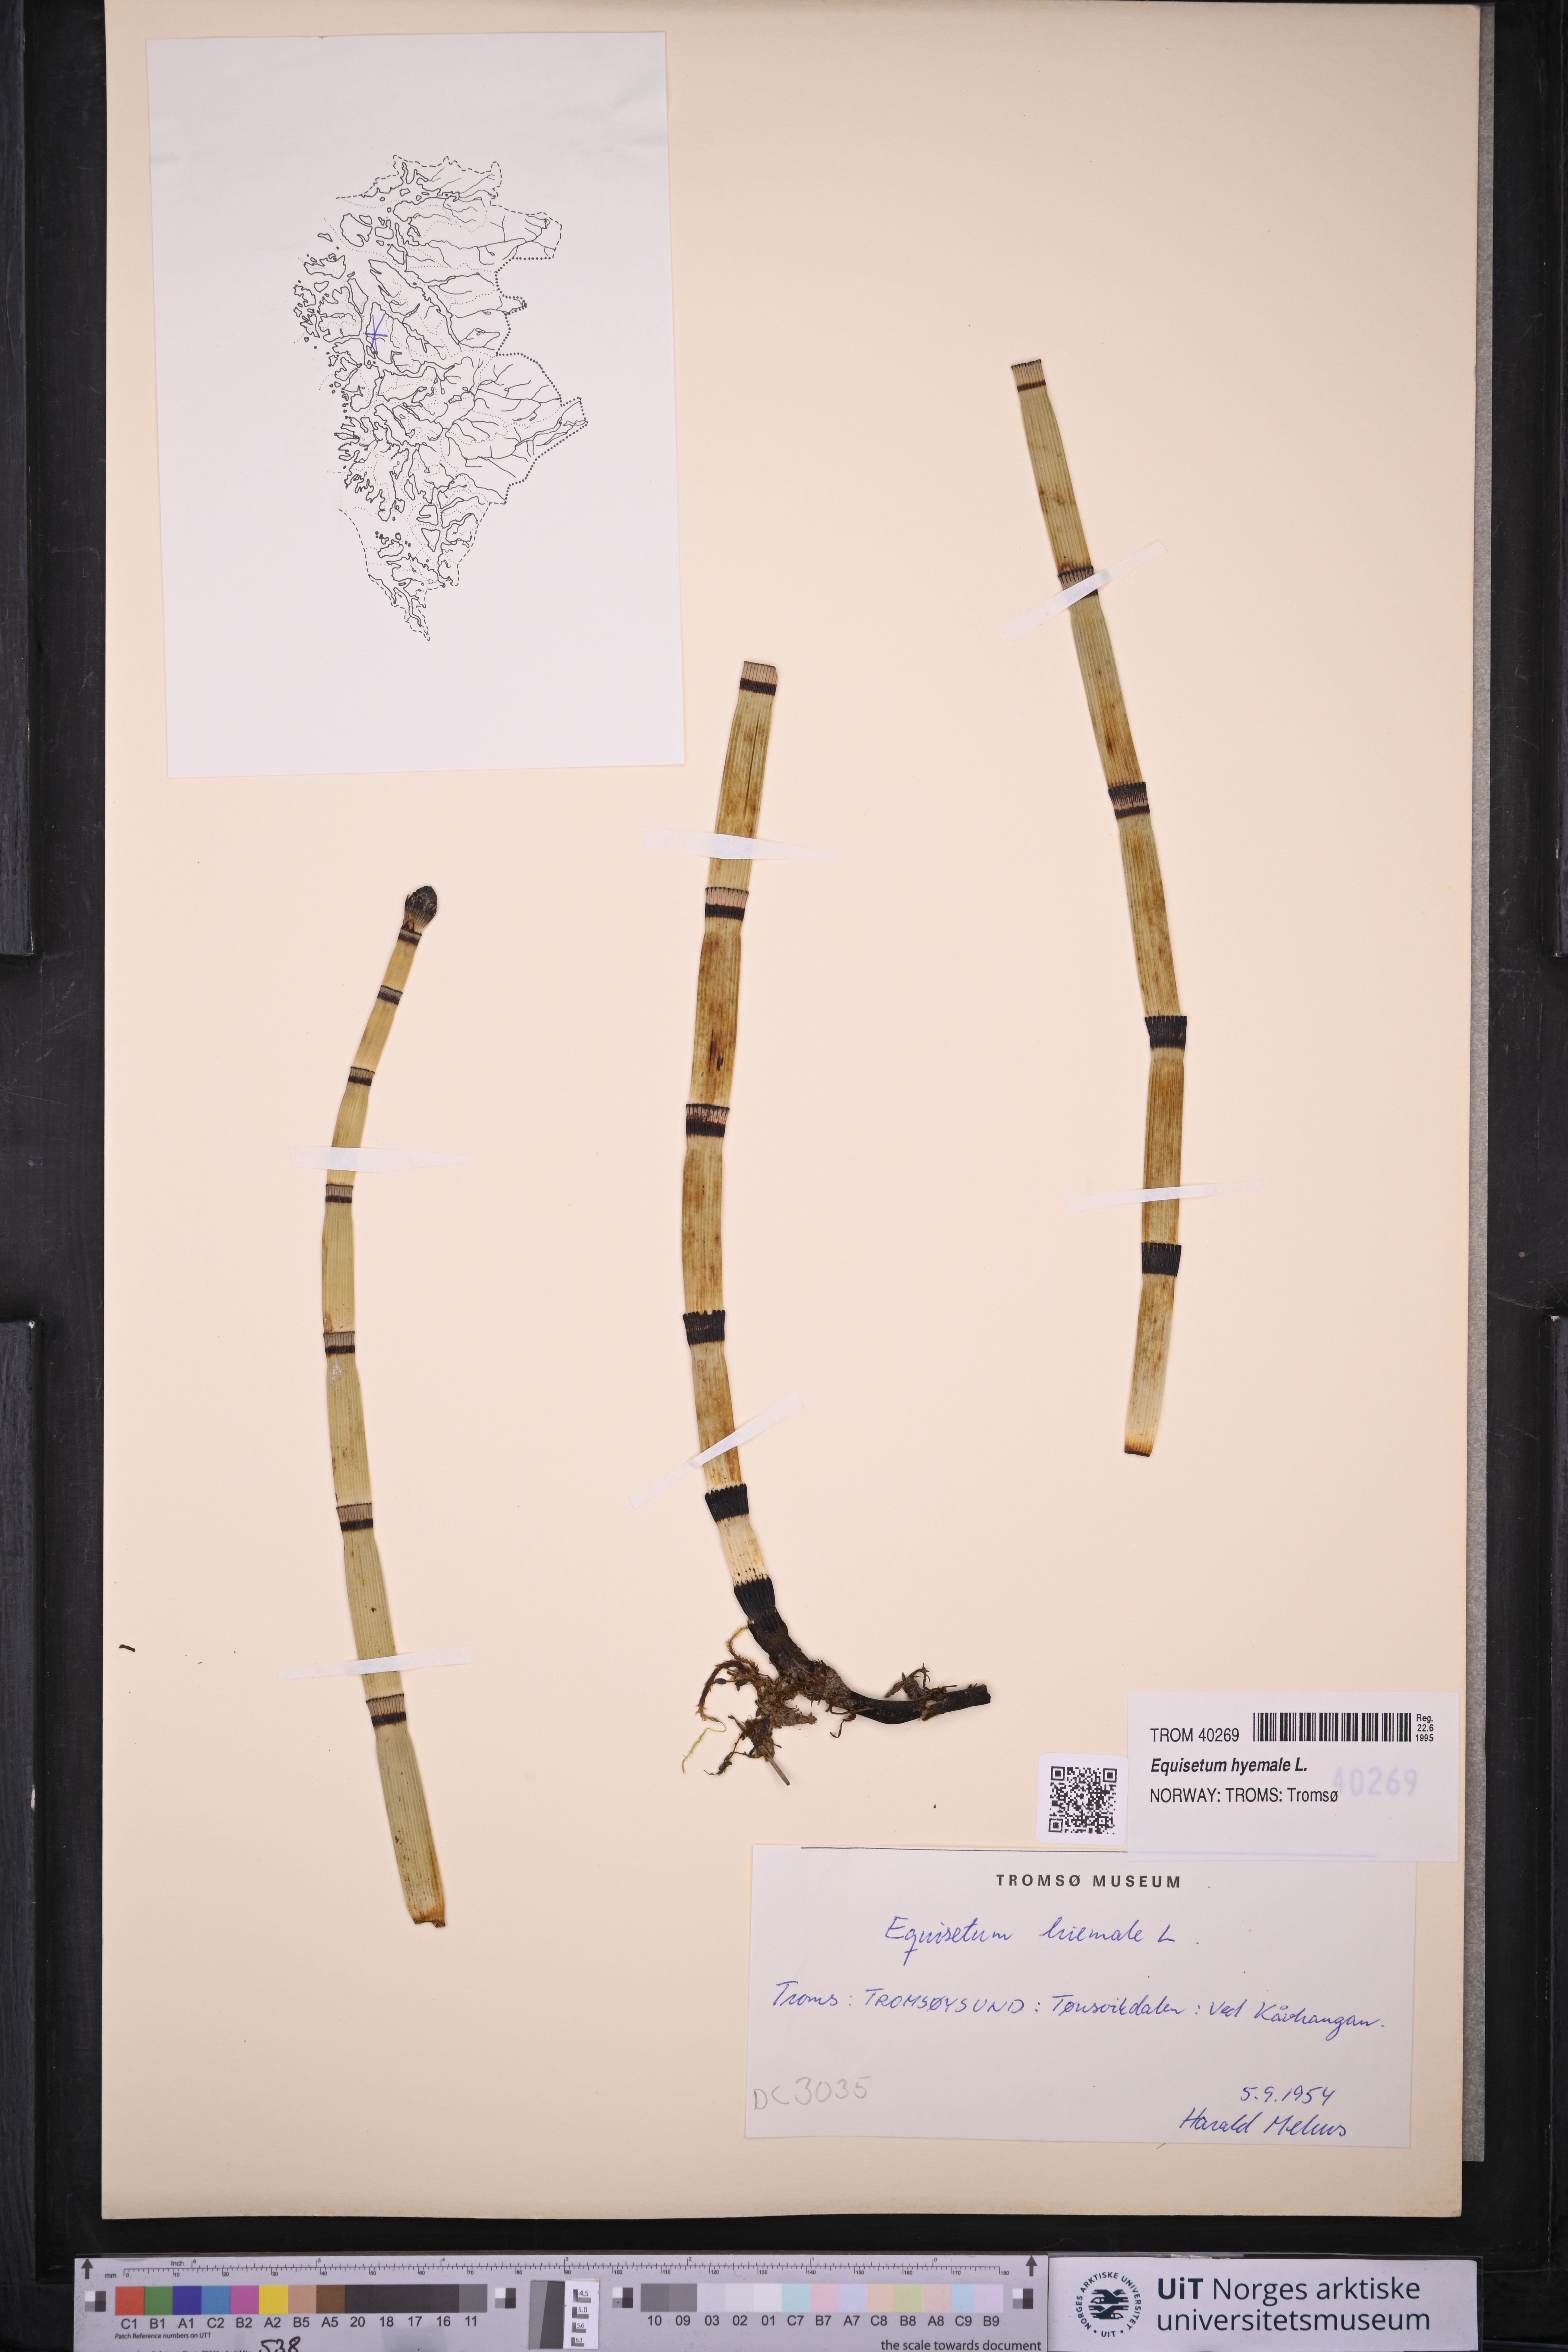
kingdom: Plantae
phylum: Tracheophyta
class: Polypodiopsida
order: Equisetales
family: Equisetaceae
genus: Equisetum
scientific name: Equisetum hyemale
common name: Rough horsetail
